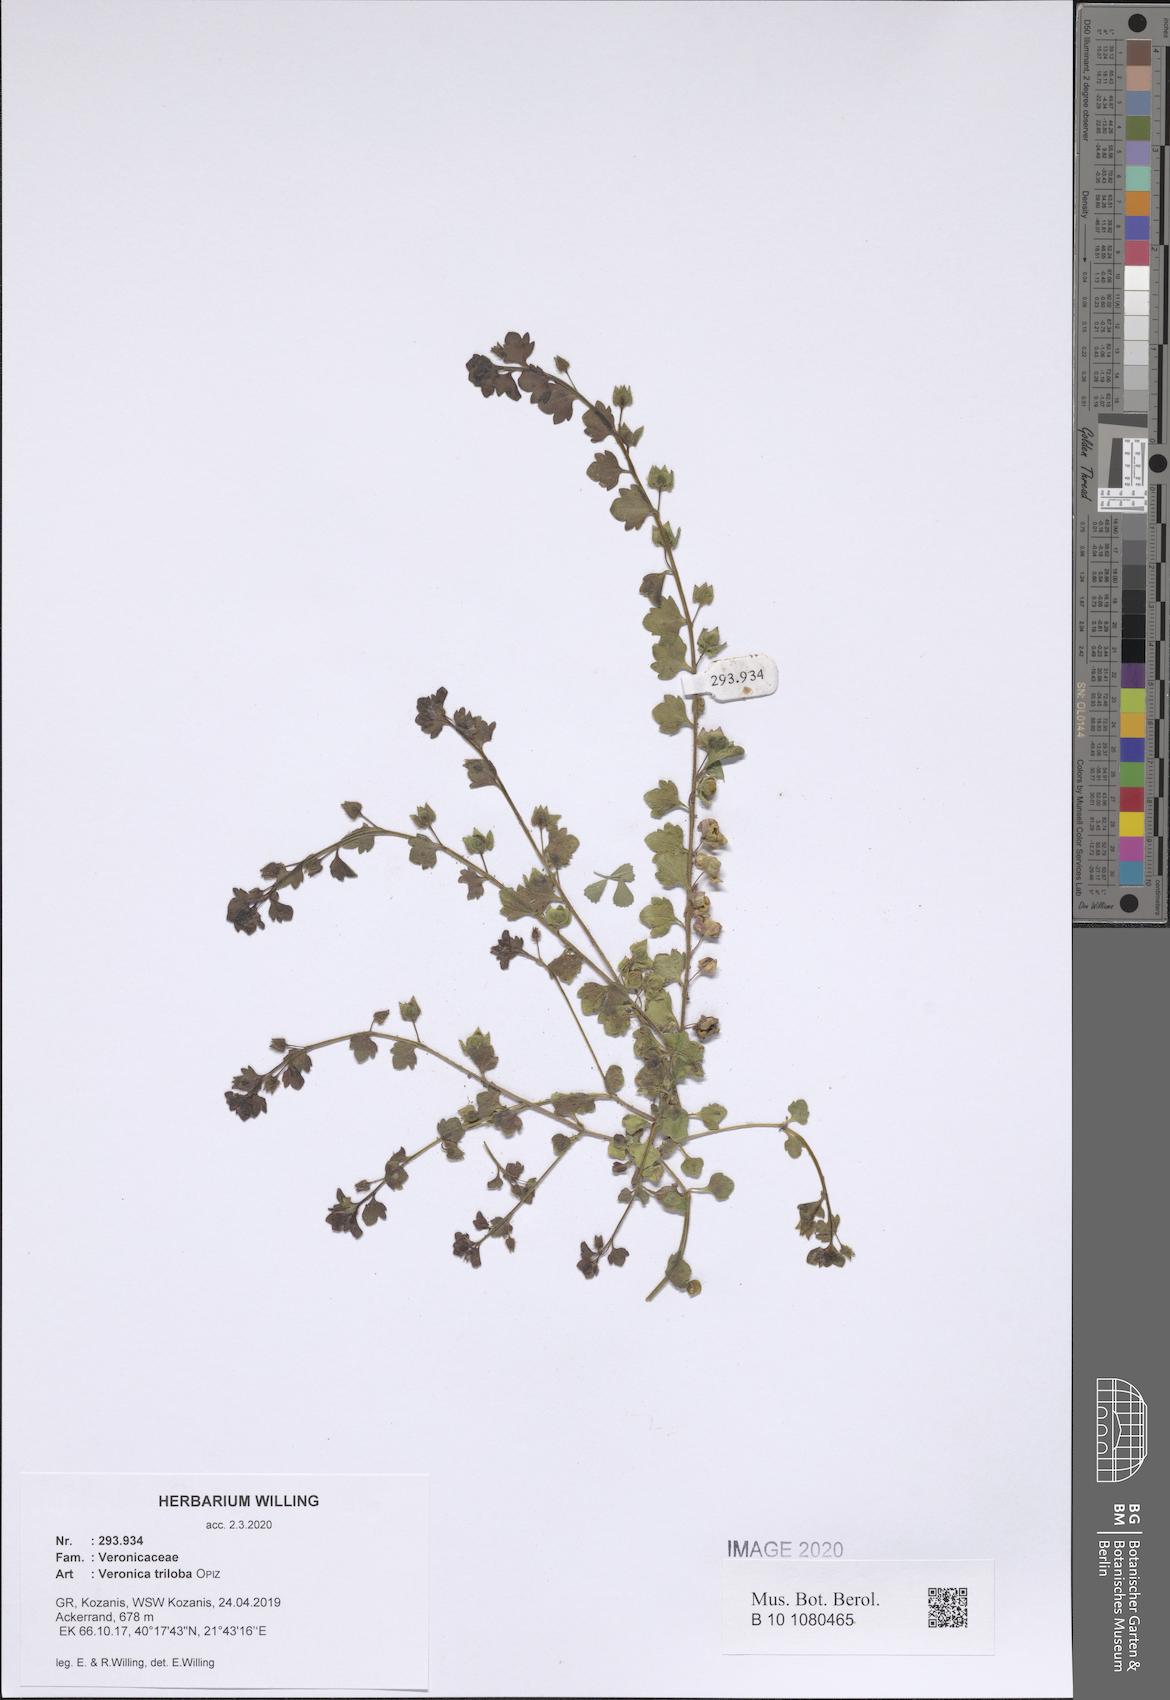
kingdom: Plantae
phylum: Tracheophyta
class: Magnoliopsida
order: Lamiales
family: Plantaginaceae
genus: Veronica
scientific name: Veronica triloba
